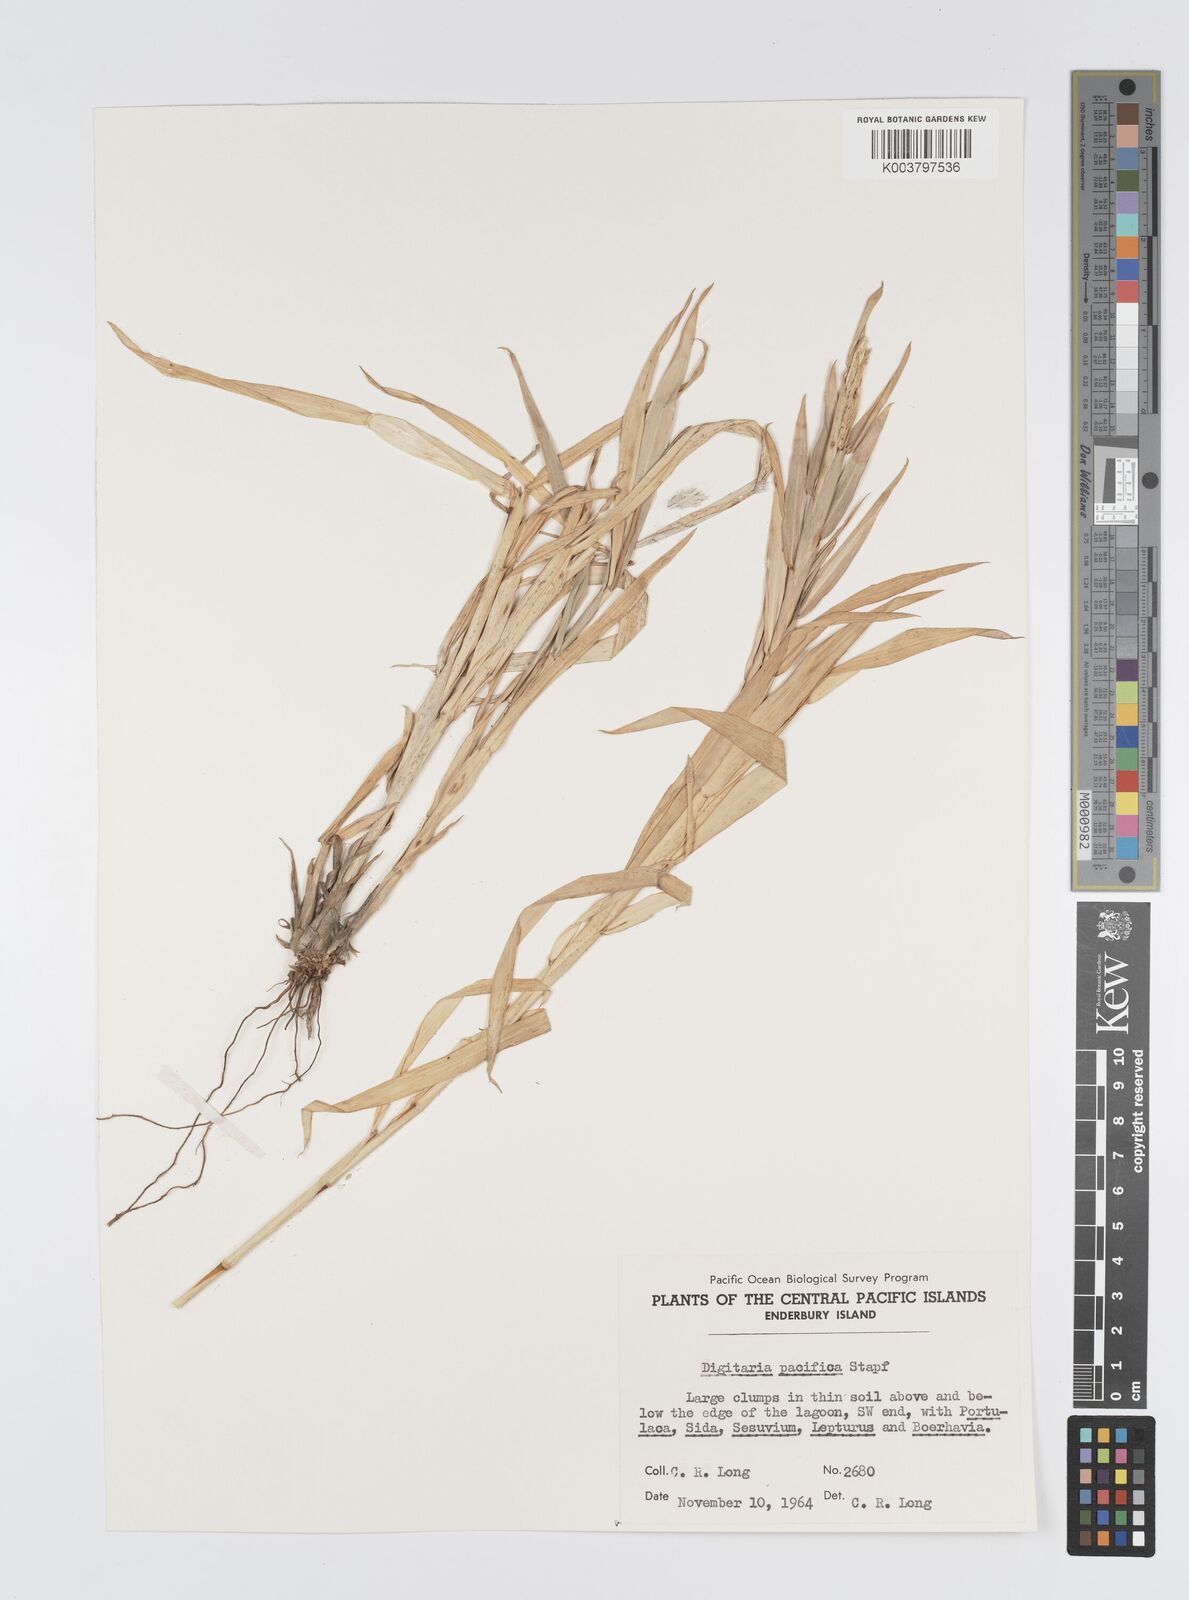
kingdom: Plantae
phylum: Tracheophyta
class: Liliopsida
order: Poales
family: Poaceae
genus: Digitaria
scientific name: Digitaria stenotaphrodes
